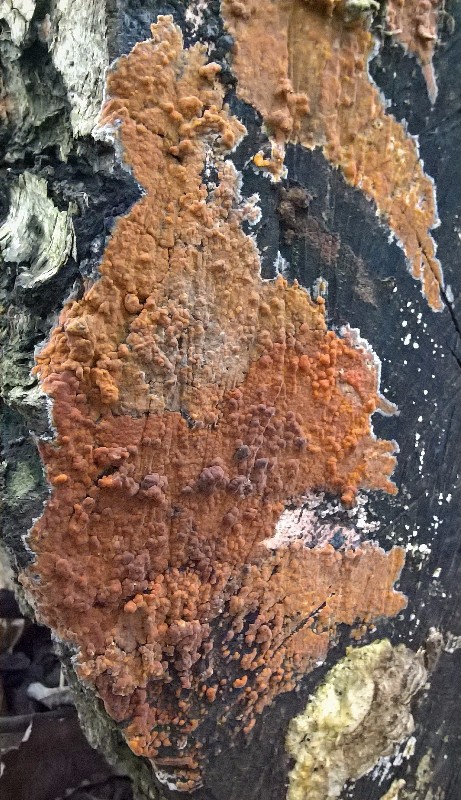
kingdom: Fungi
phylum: Basidiomycota
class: Agaricomycetes
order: Russulales
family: Peniophoraceae
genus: Peniophora
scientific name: Peniophora incarnata
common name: laksefarvet voksskind
